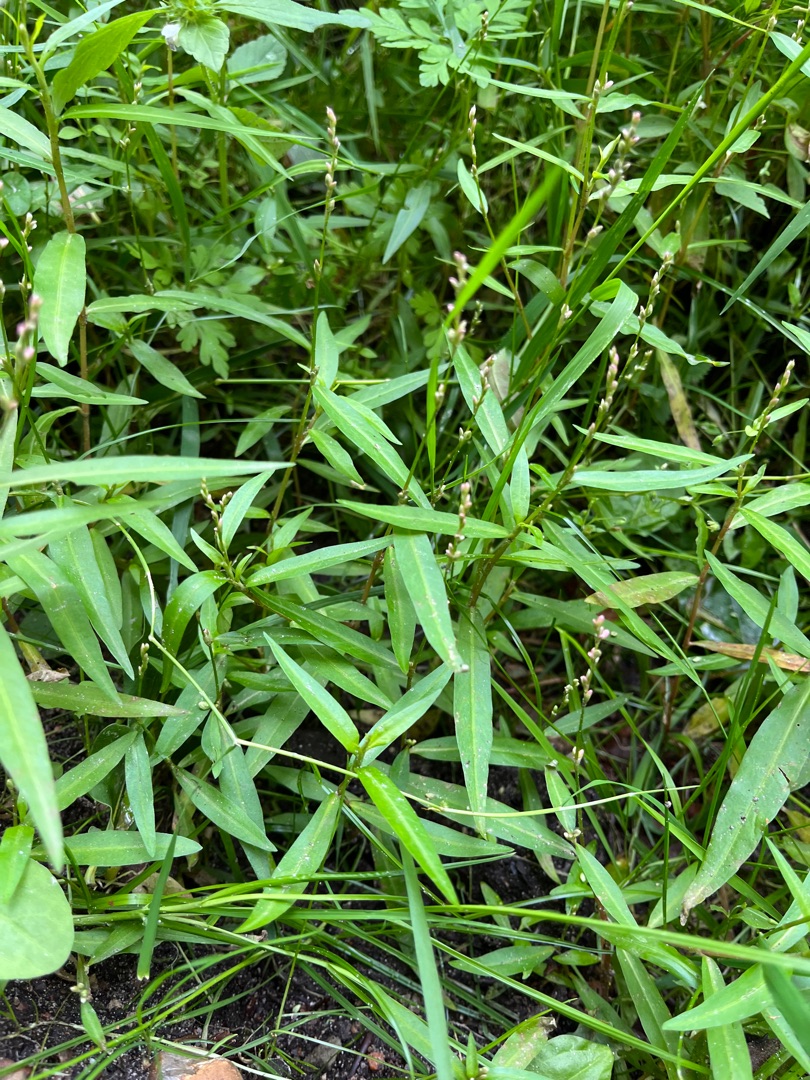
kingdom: Plantae
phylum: Tracheophyta
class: Magnoliopsida
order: Caryophyllales
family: Polygonaceae
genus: Persicaria
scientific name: Persicaria minor
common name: Liden pileurt
